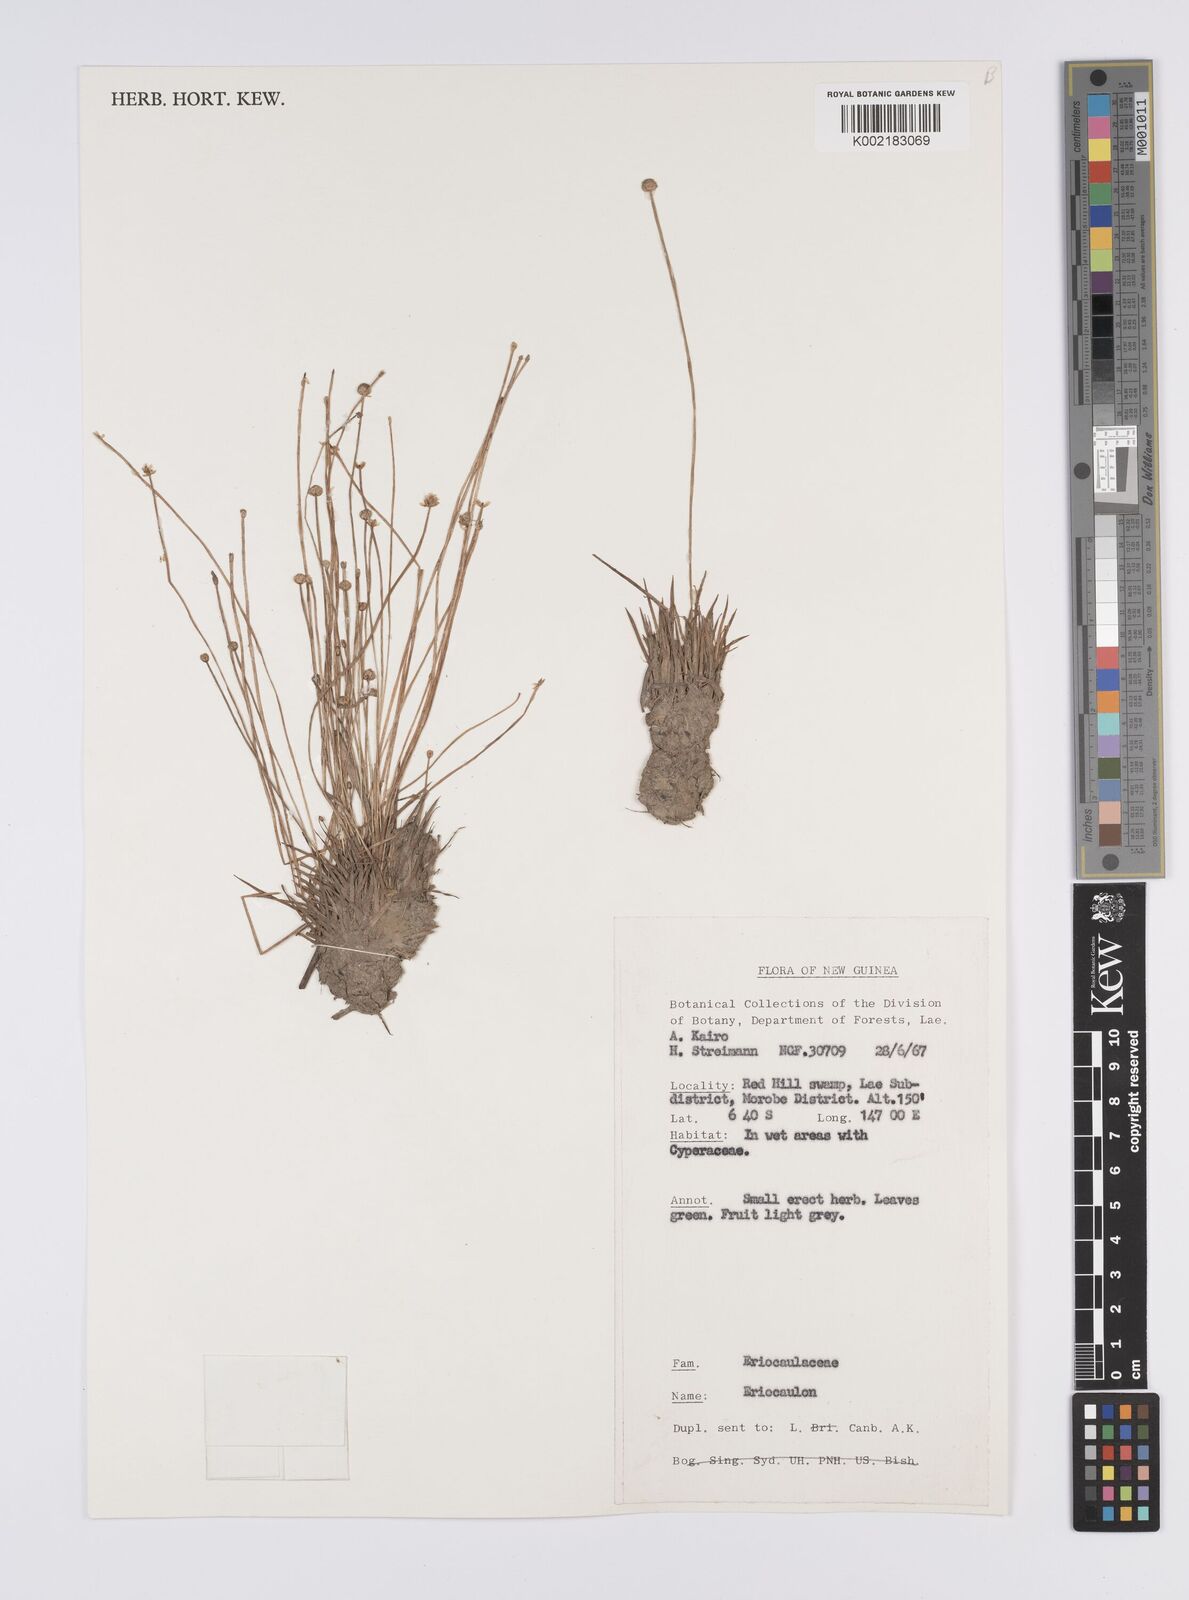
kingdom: Plantae
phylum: Tracheophyta
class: Liliopsida
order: Poales
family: Eriocaulaceae
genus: Eriocaulon
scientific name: Eriocaulon
